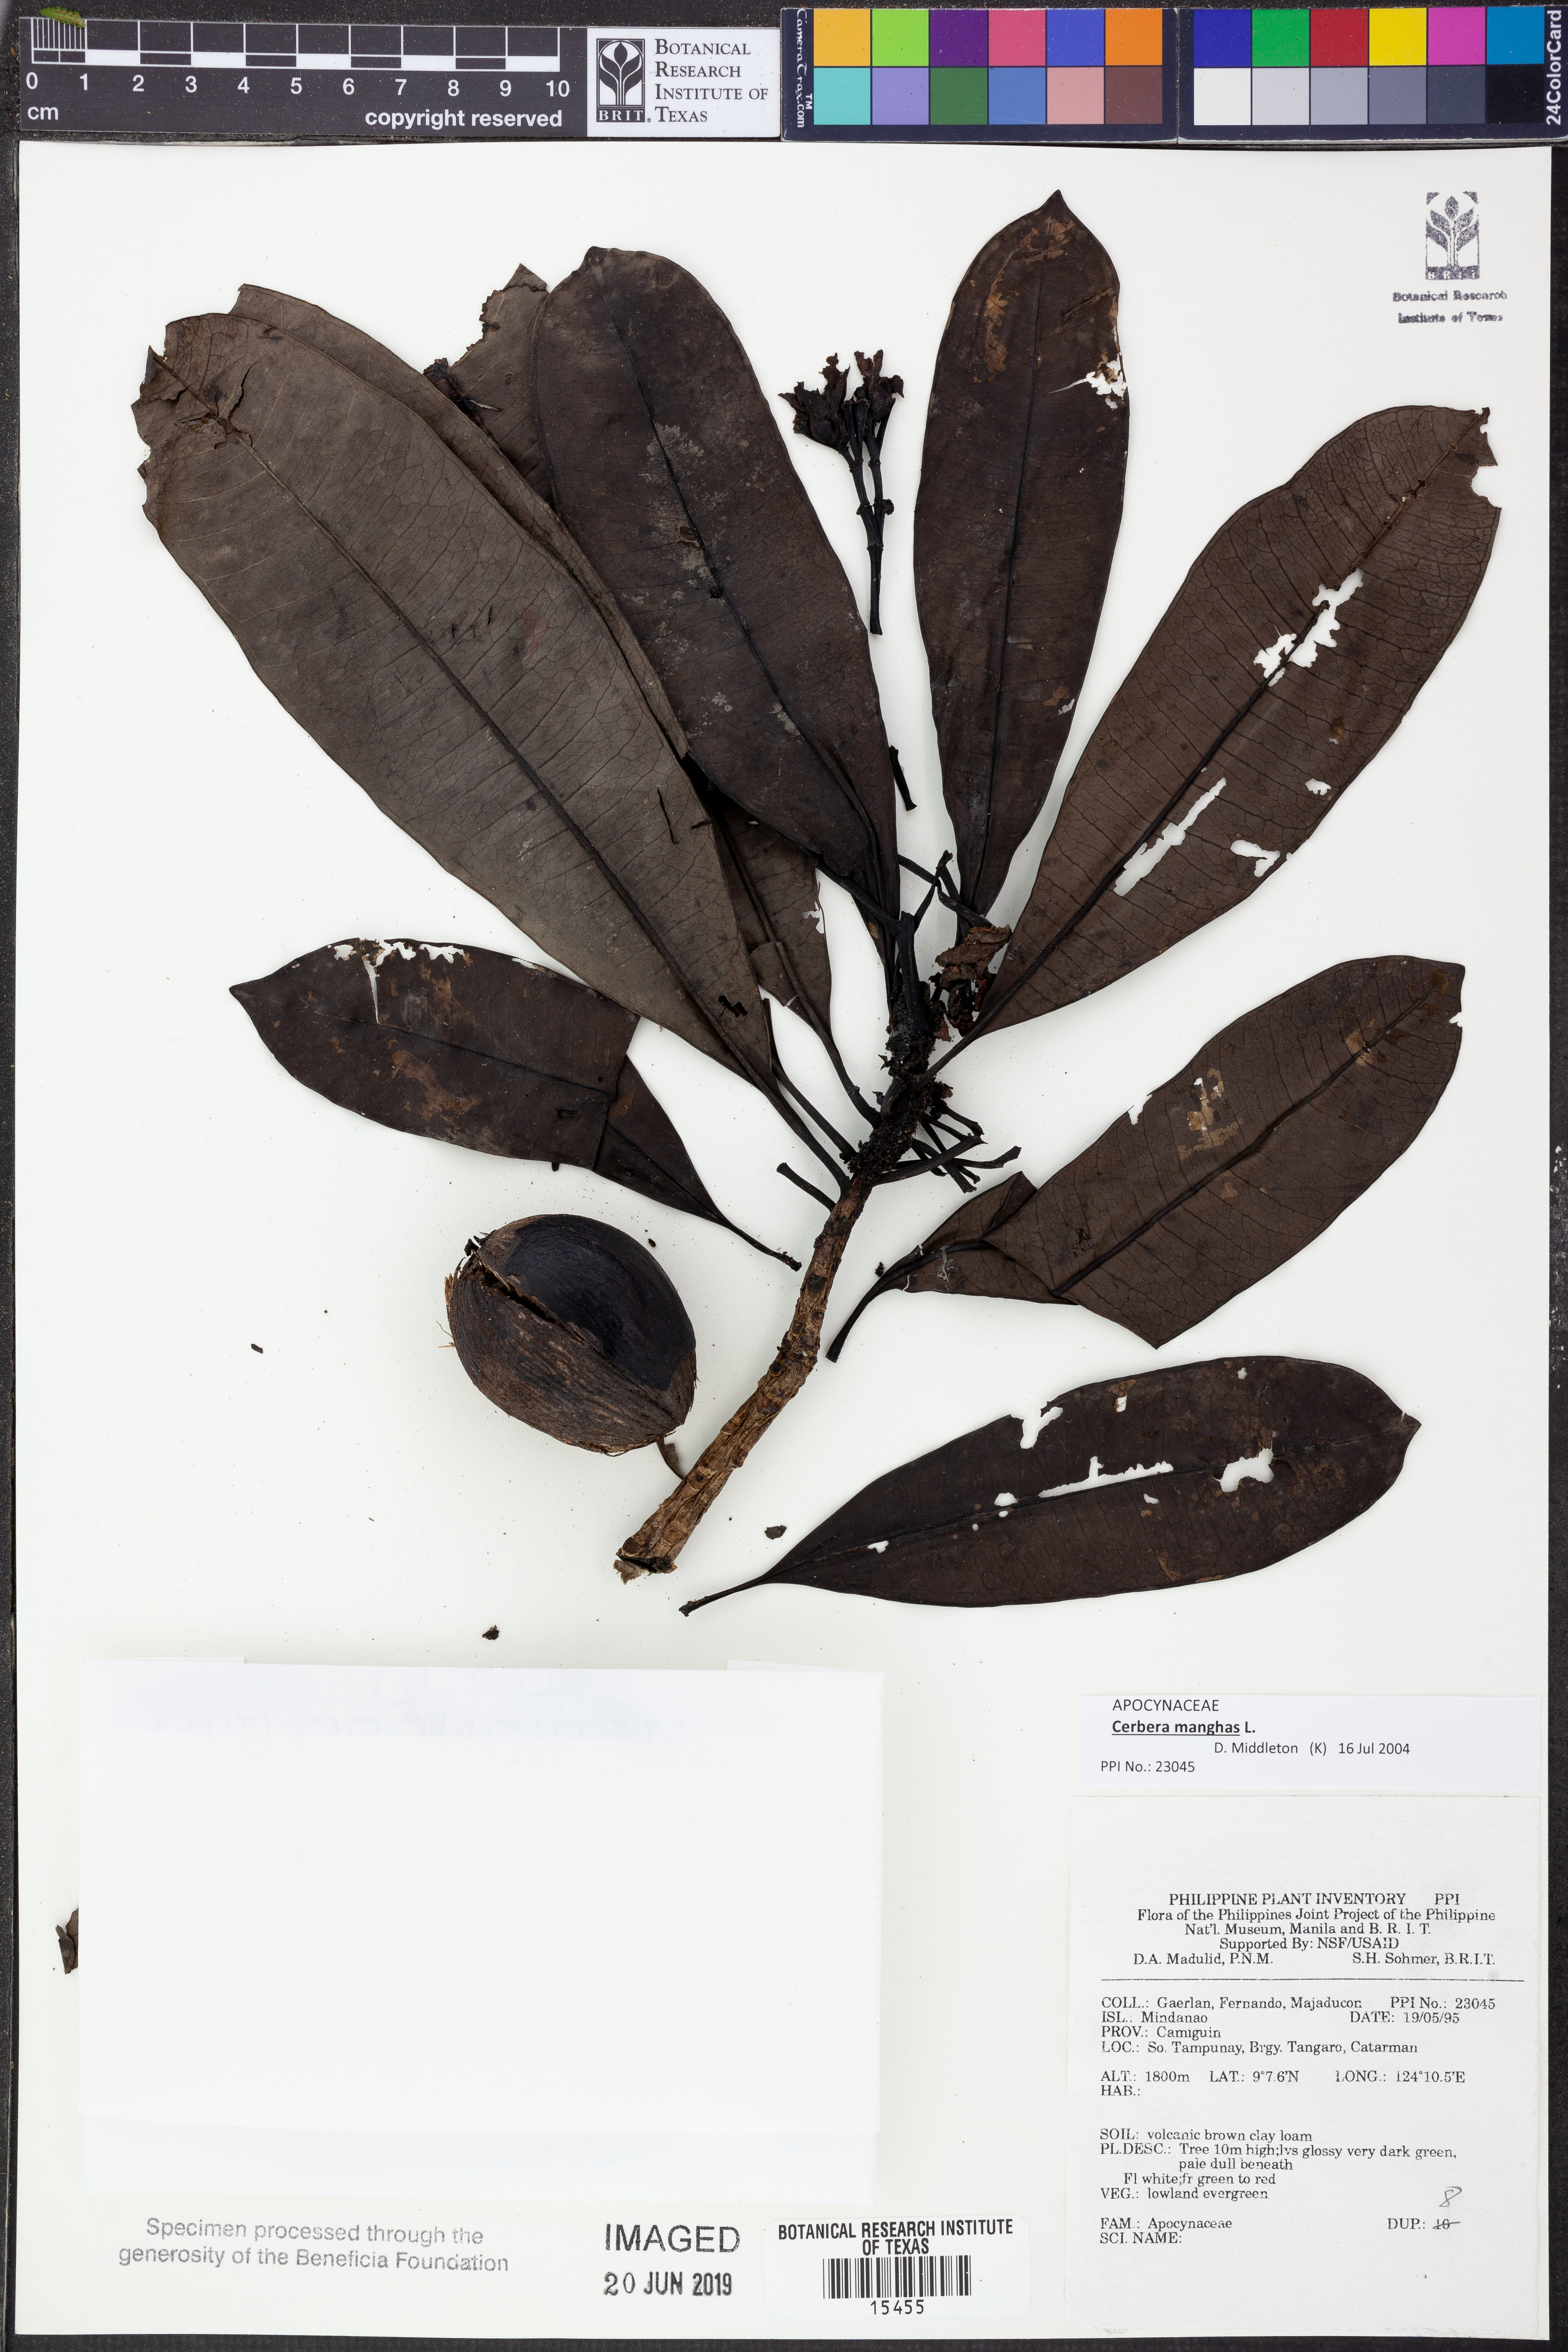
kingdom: Plantae
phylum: Tracheophyta
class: Magnoliopsida
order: Gentianales
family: Apocynaceae
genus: Cerbera
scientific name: Cerbera manghas
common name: Reva
